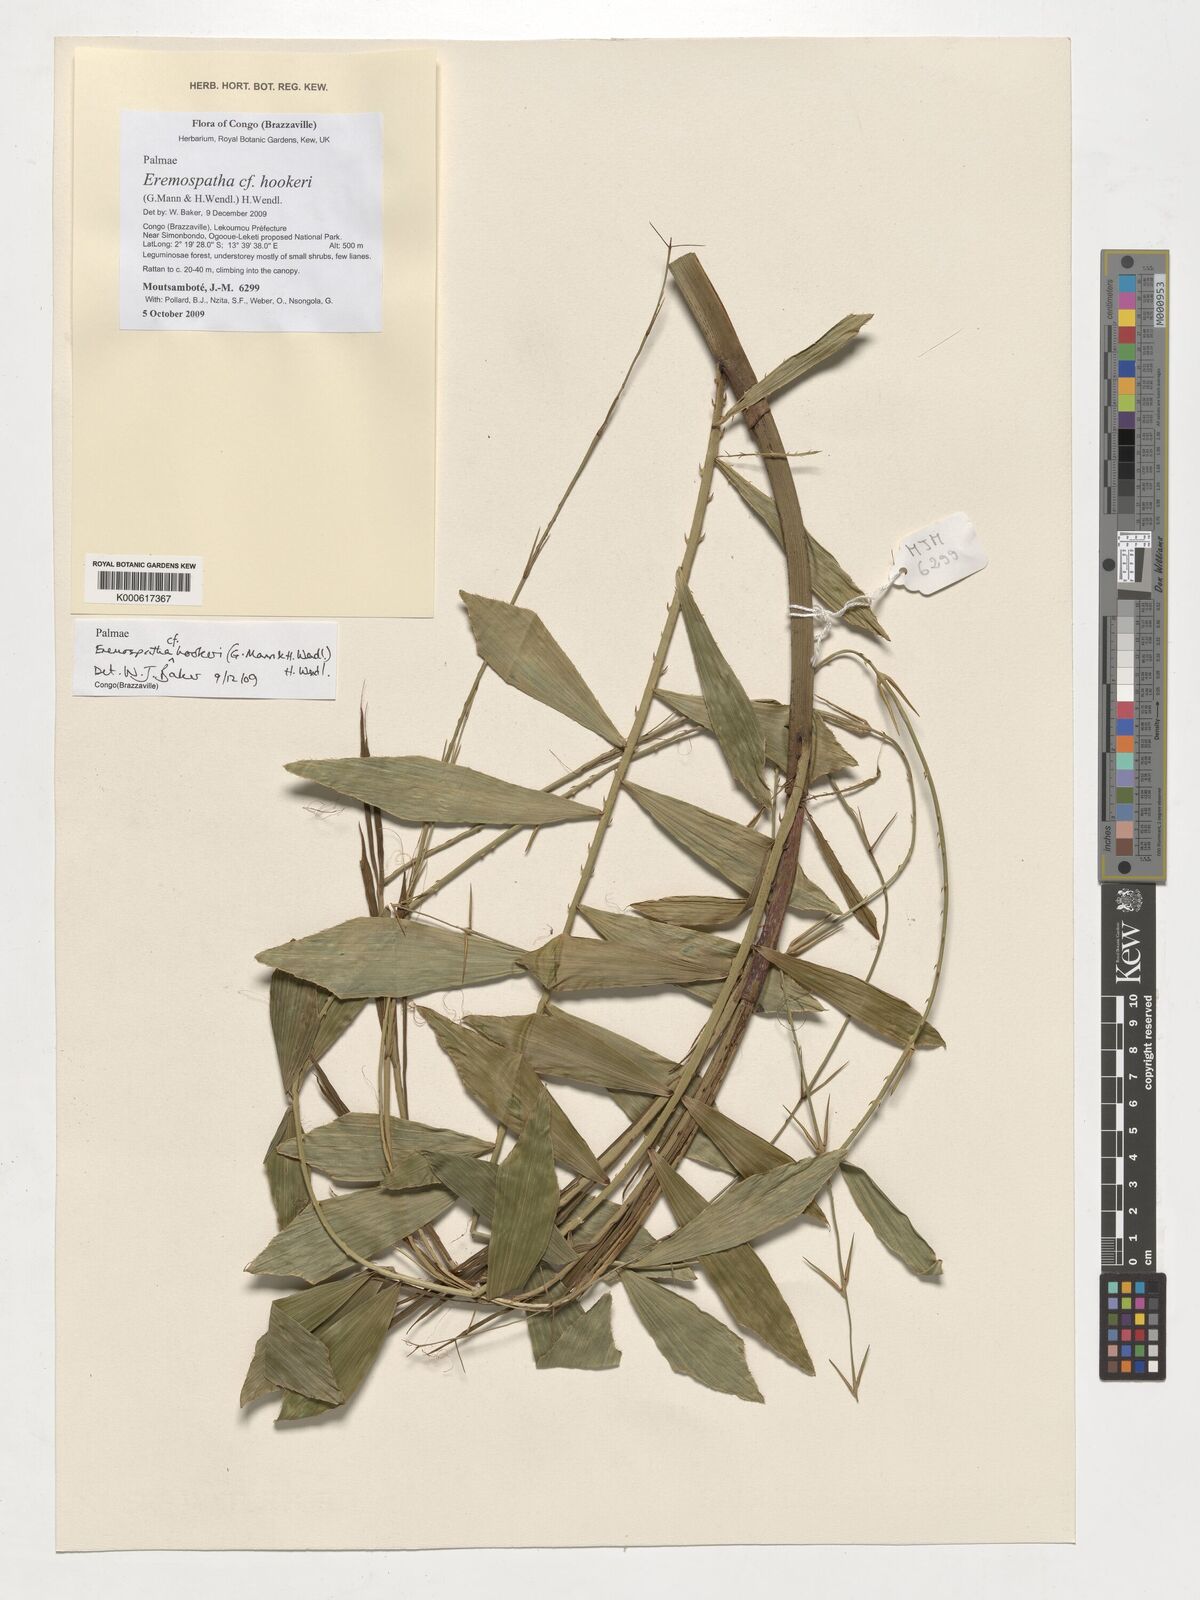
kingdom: Plantae
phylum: Tracheophyta
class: Liliopsida
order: Arecales
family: Arecaceae
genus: Eremospatha
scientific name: Eremospatha hookeri
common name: Rattan
